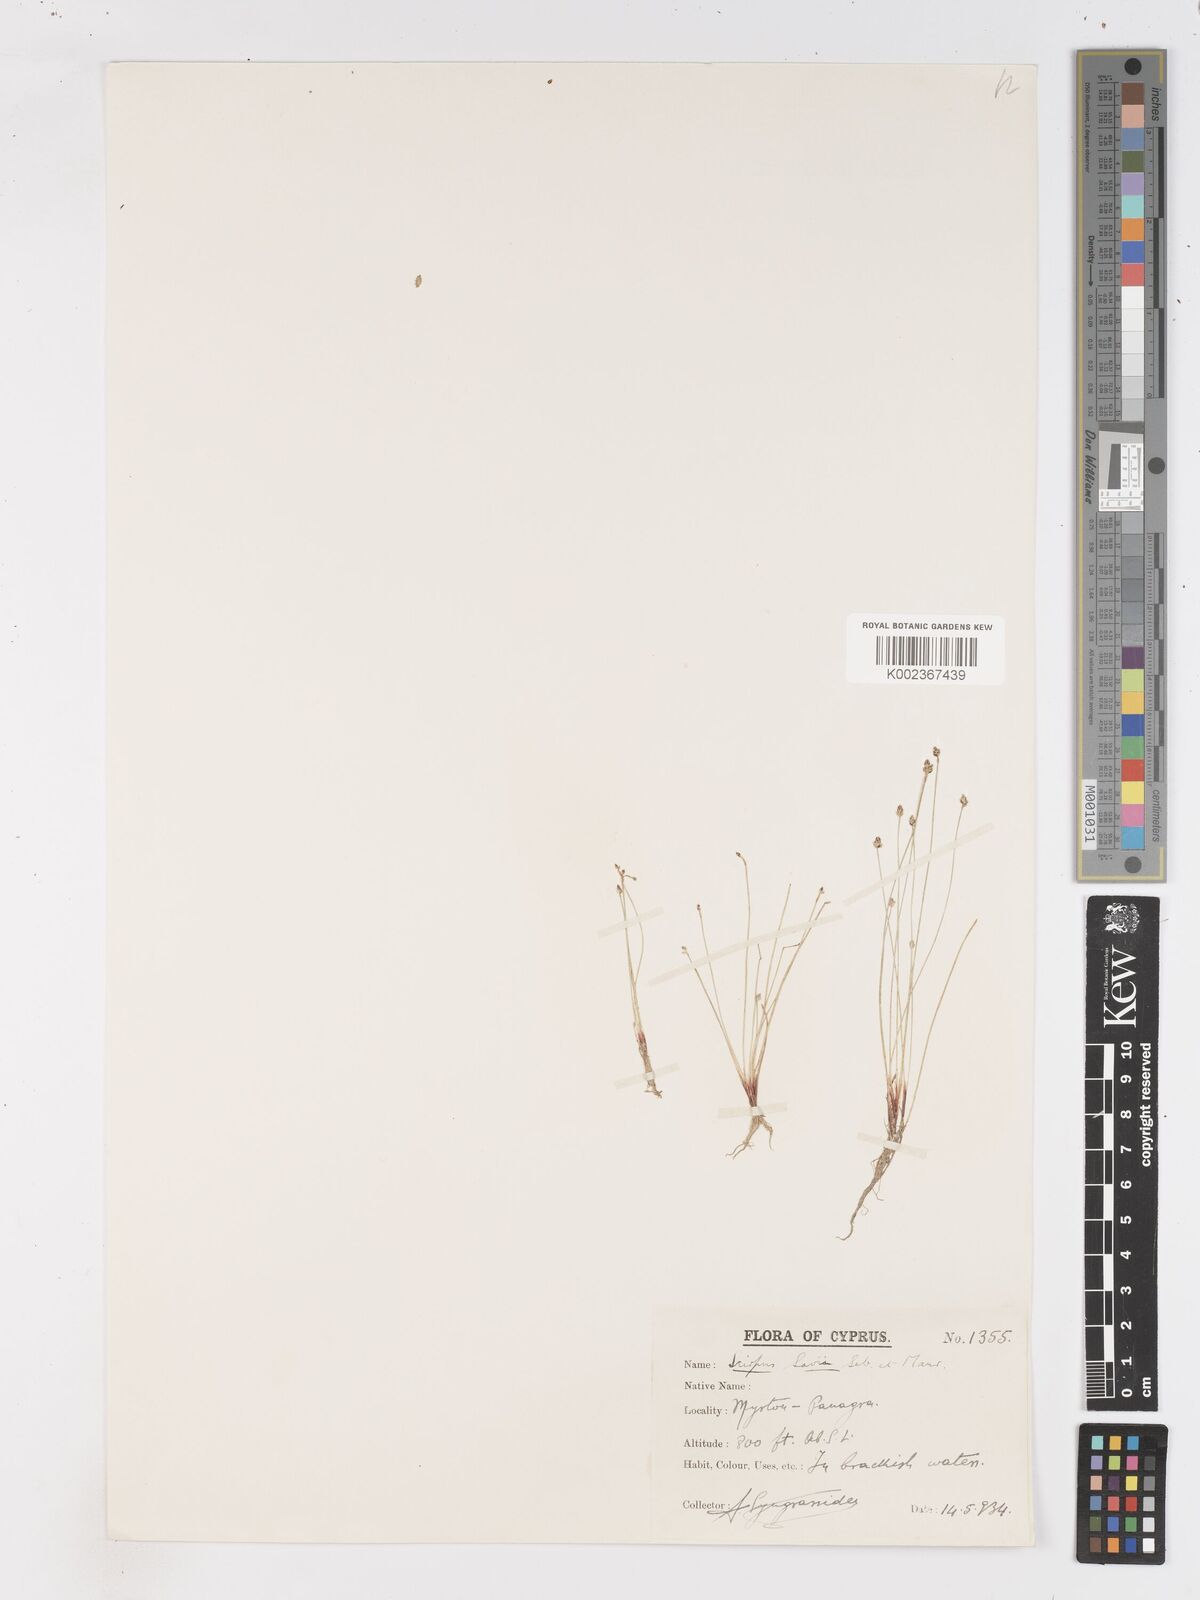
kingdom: Plantae
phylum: Tracheophyta
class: Liliopsida
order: Poales
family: Cyperaceae
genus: Isolepis
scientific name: Isolepis cernua
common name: Slender club-rush
